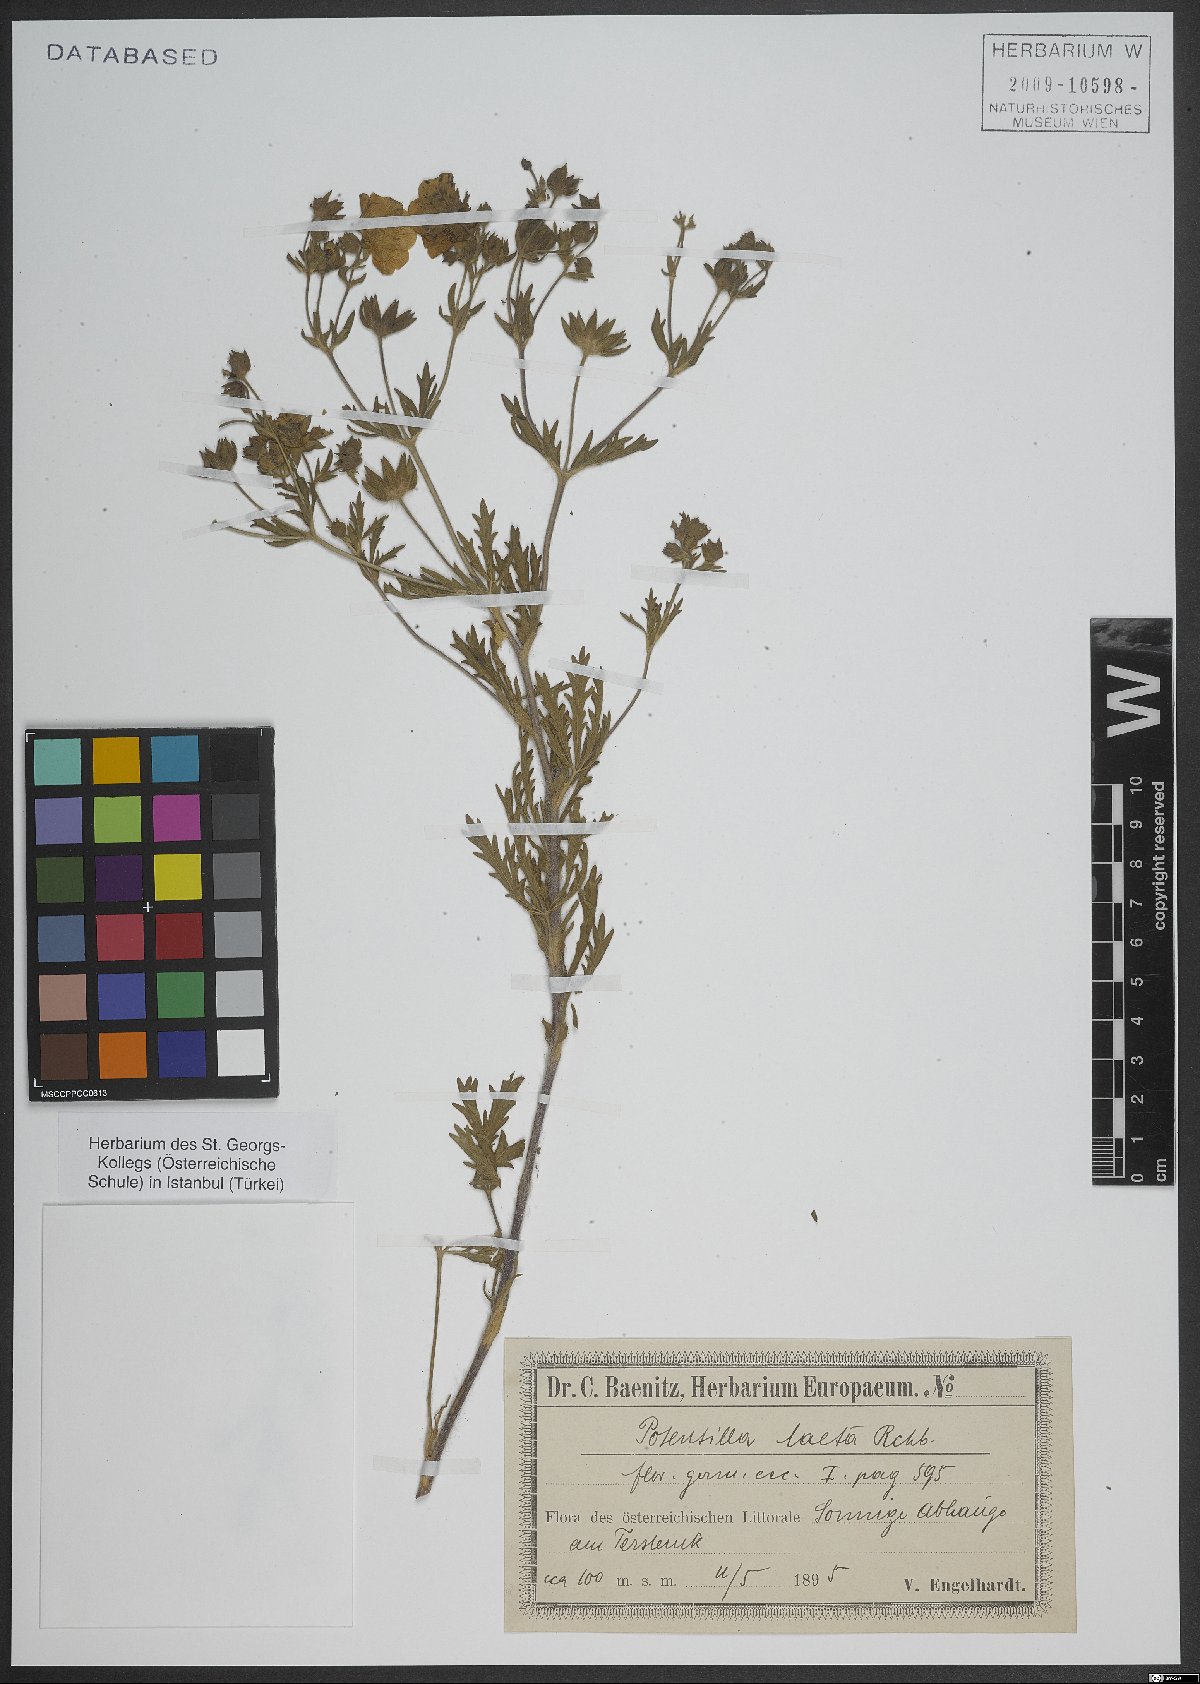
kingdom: Plantae
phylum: Tracheophyta
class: Magnoliopsida
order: Rosales
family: Rosaceae
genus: Potentilla
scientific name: Potentilla hirta
